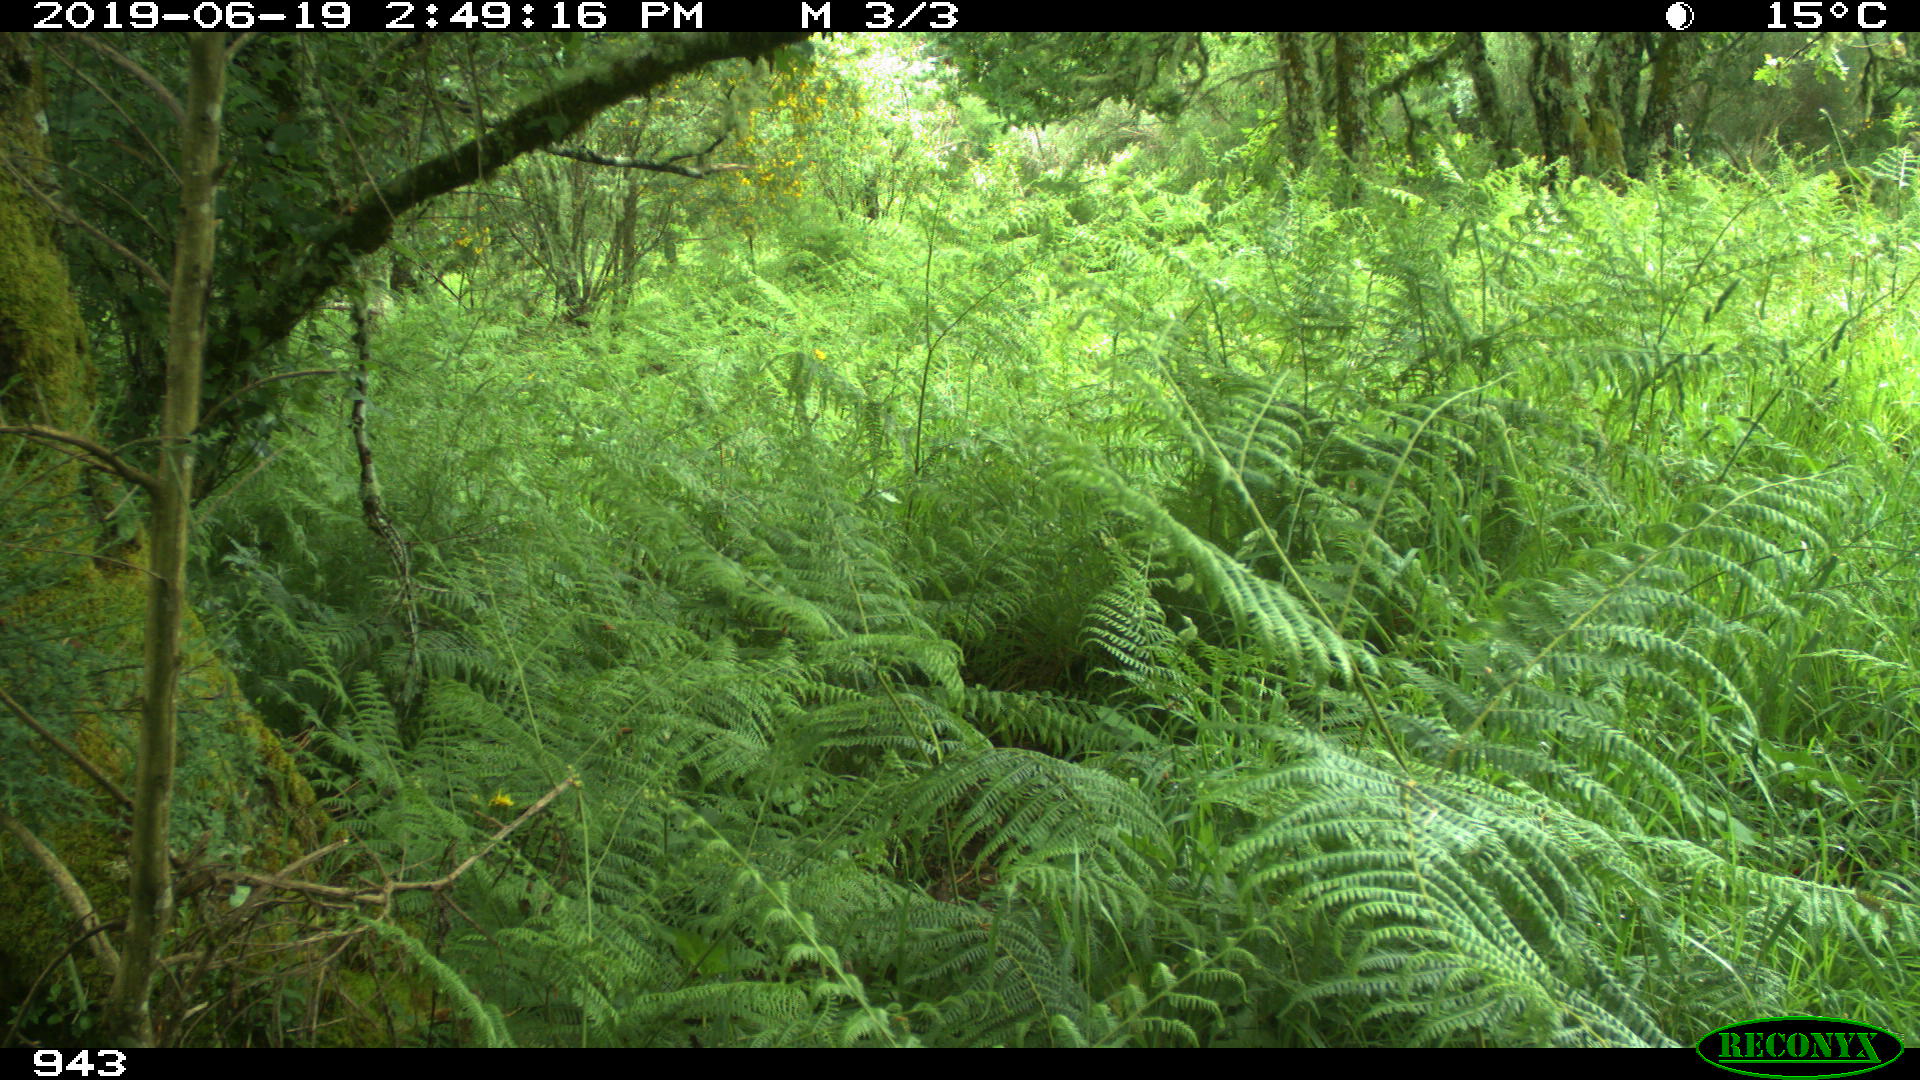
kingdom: Animalia
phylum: Chordata
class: Mammalia
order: Artiodactyla
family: Cervidae
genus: Capreolus
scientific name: Capreolus capreolus
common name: Western roe deer
